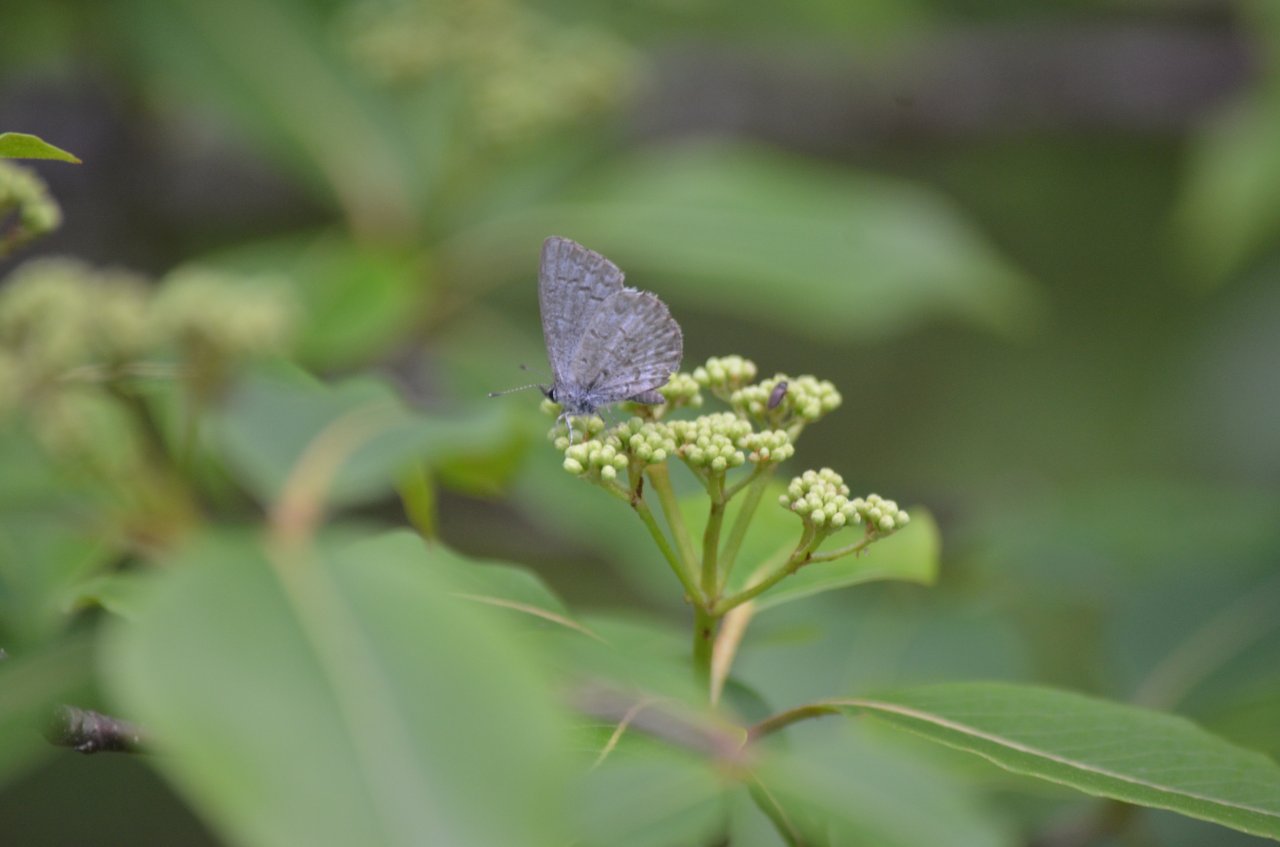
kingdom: Animalia
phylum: Arthropoda
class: Insecta
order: Lepidoptera
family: Lycaenidae
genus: Celastrina
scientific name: Celastrina lucia
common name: Northern Spring Azure
